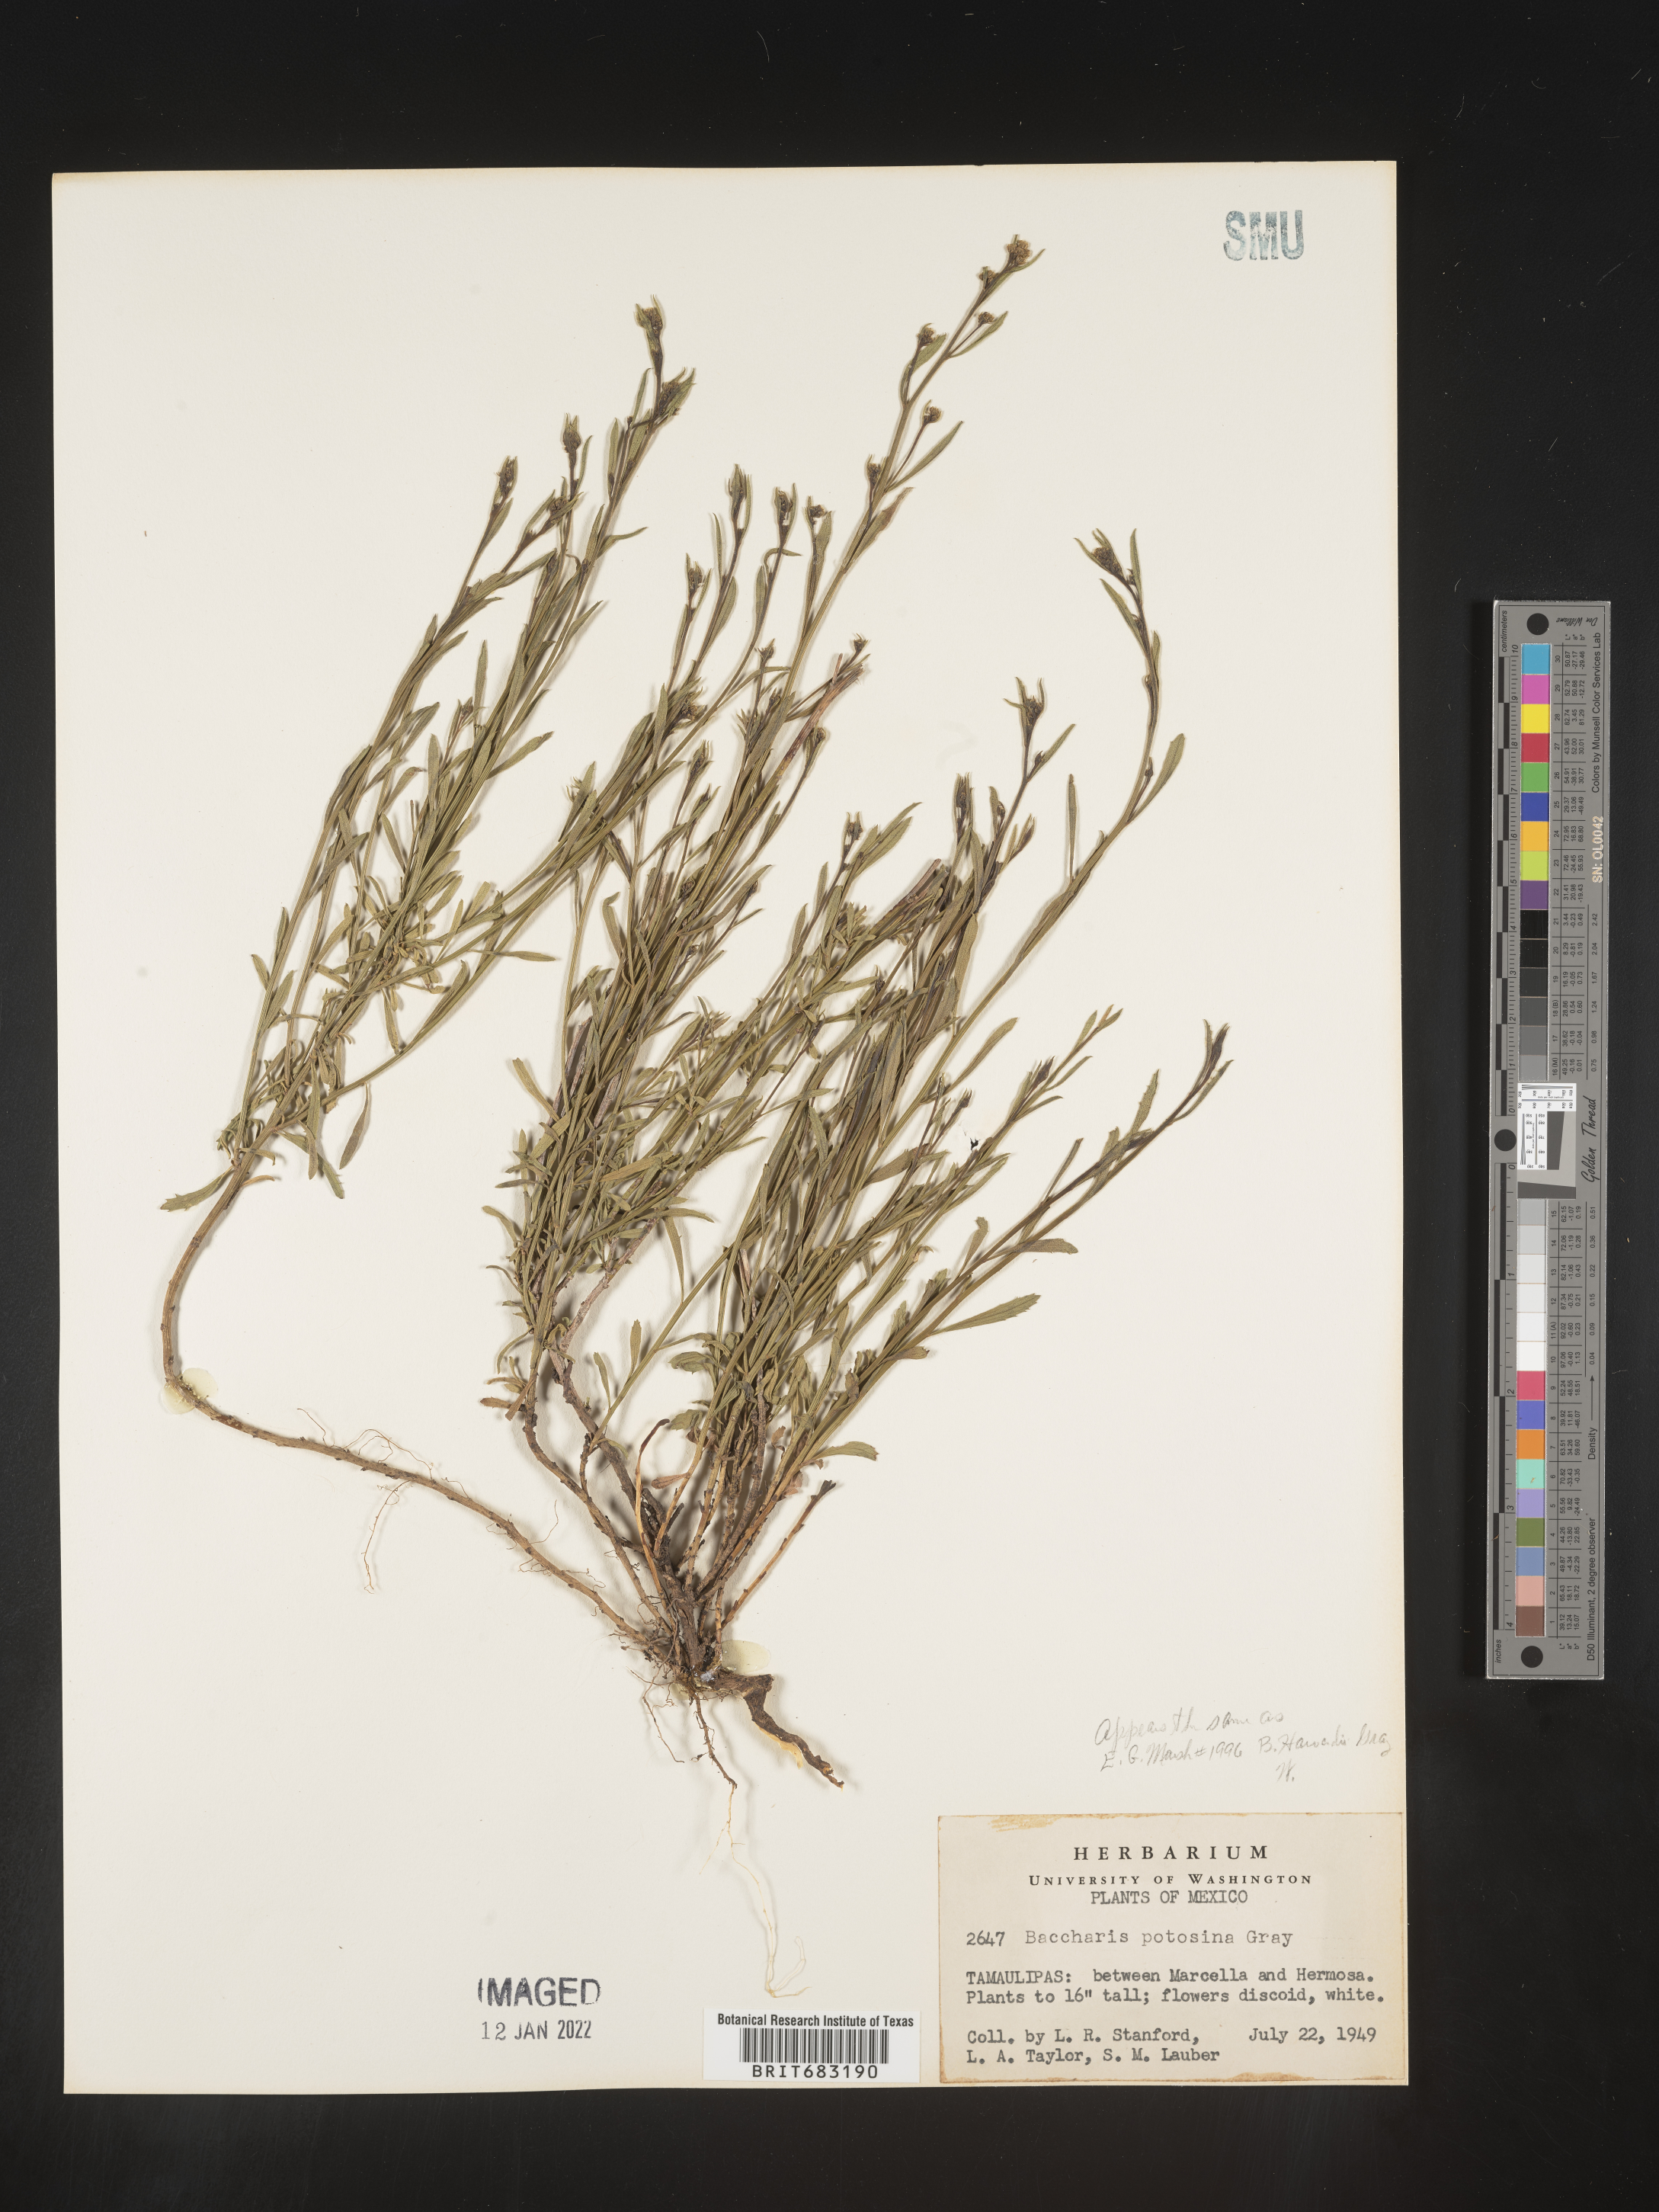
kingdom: Plantae
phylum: Tracheophyta
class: Magnoliopsida
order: Asterales
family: Asteraceae
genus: Baccharis
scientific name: Baccharis
